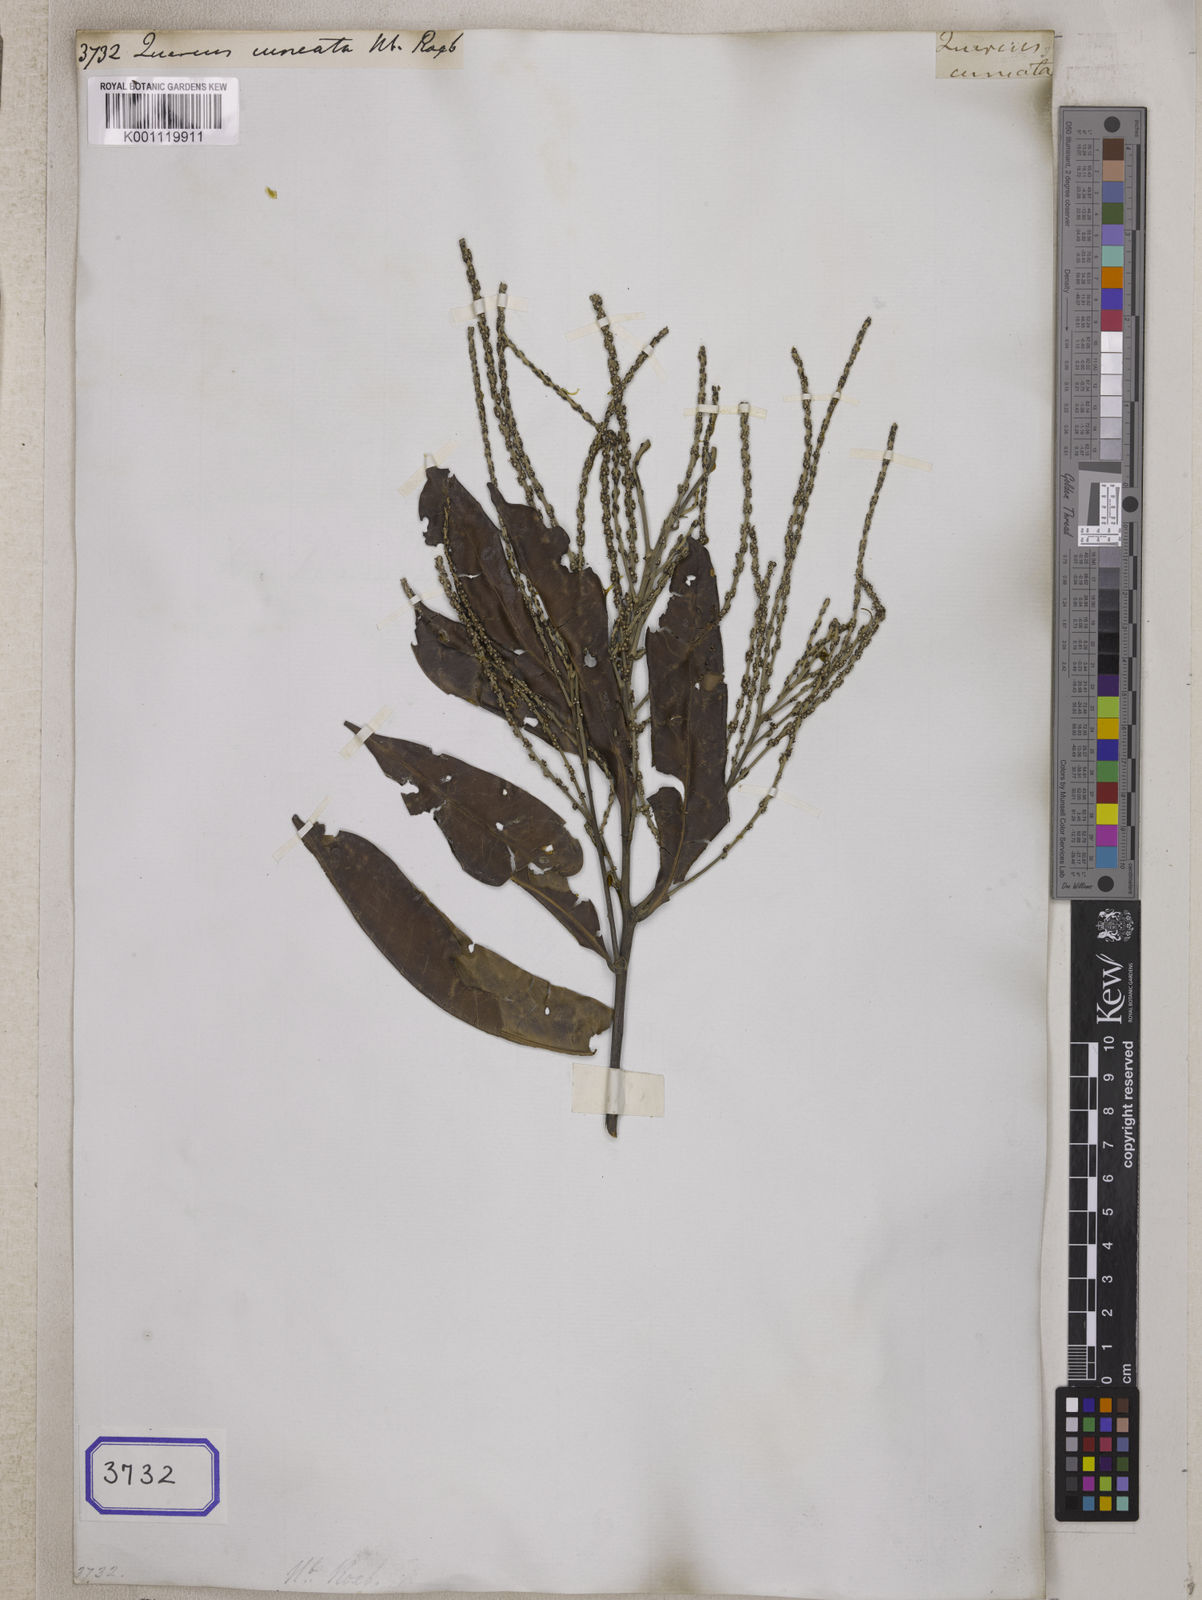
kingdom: Plantae
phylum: Tracheophyta
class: Magnoliopsida
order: Fagales
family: Fagaceae
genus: Lithocarpus
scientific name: Lithocarpus lucidus
